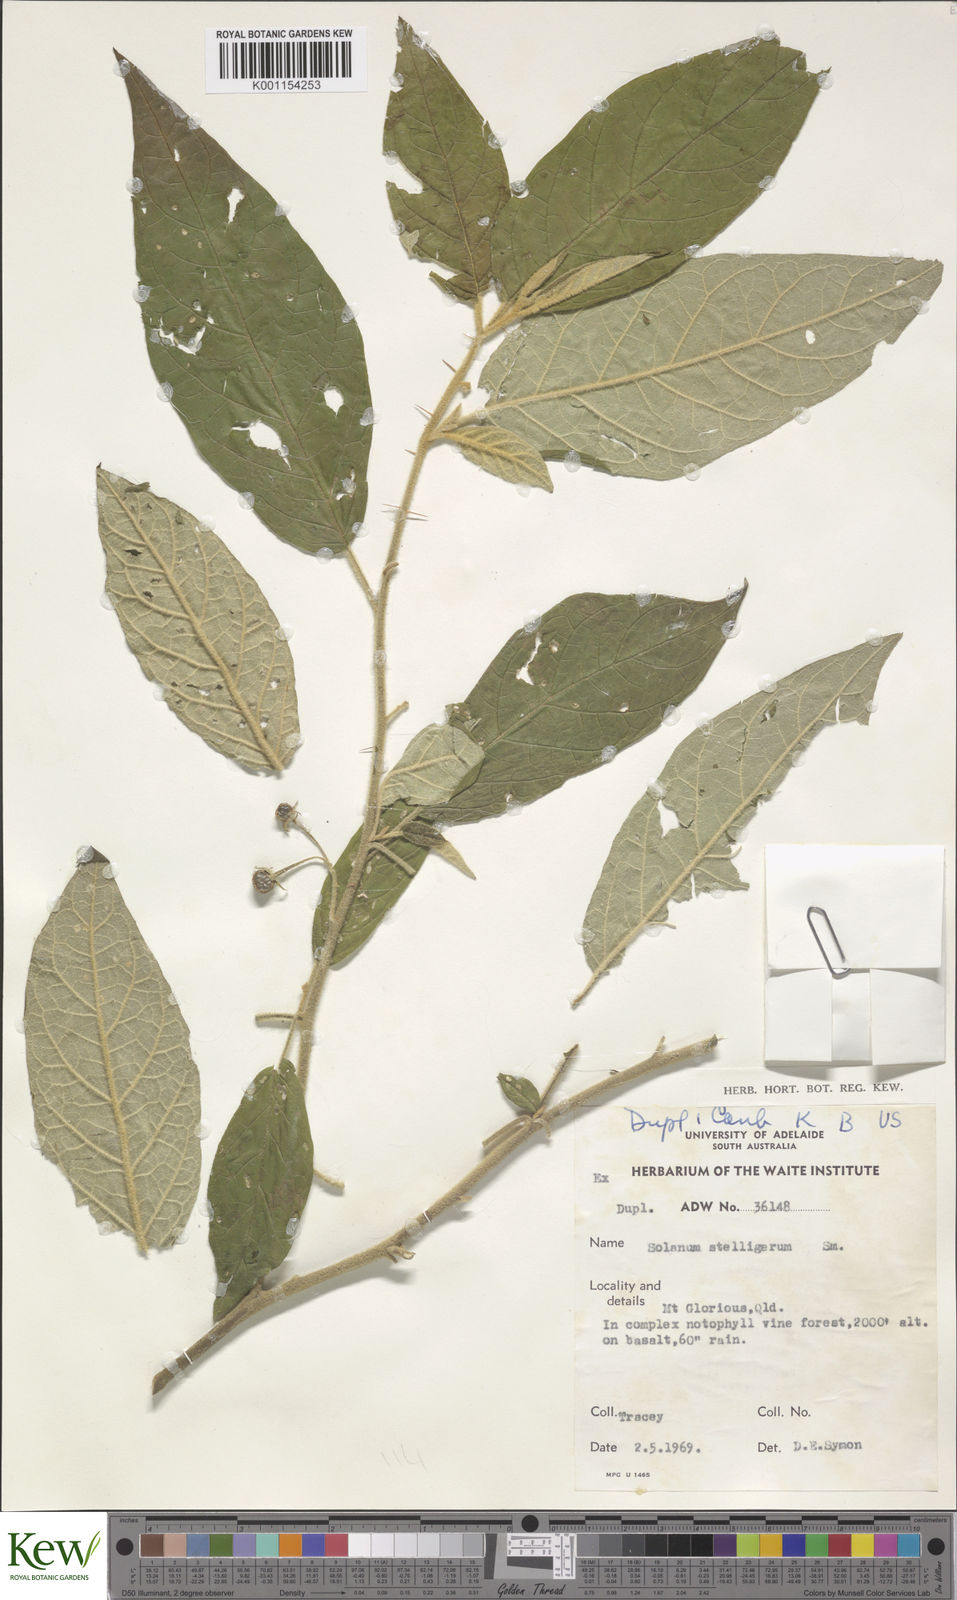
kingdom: Plantae
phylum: Tracheophyta
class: Magnoliopsida
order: Solanales
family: Solanaceae
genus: Solanum
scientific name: Solanum stelligerum
